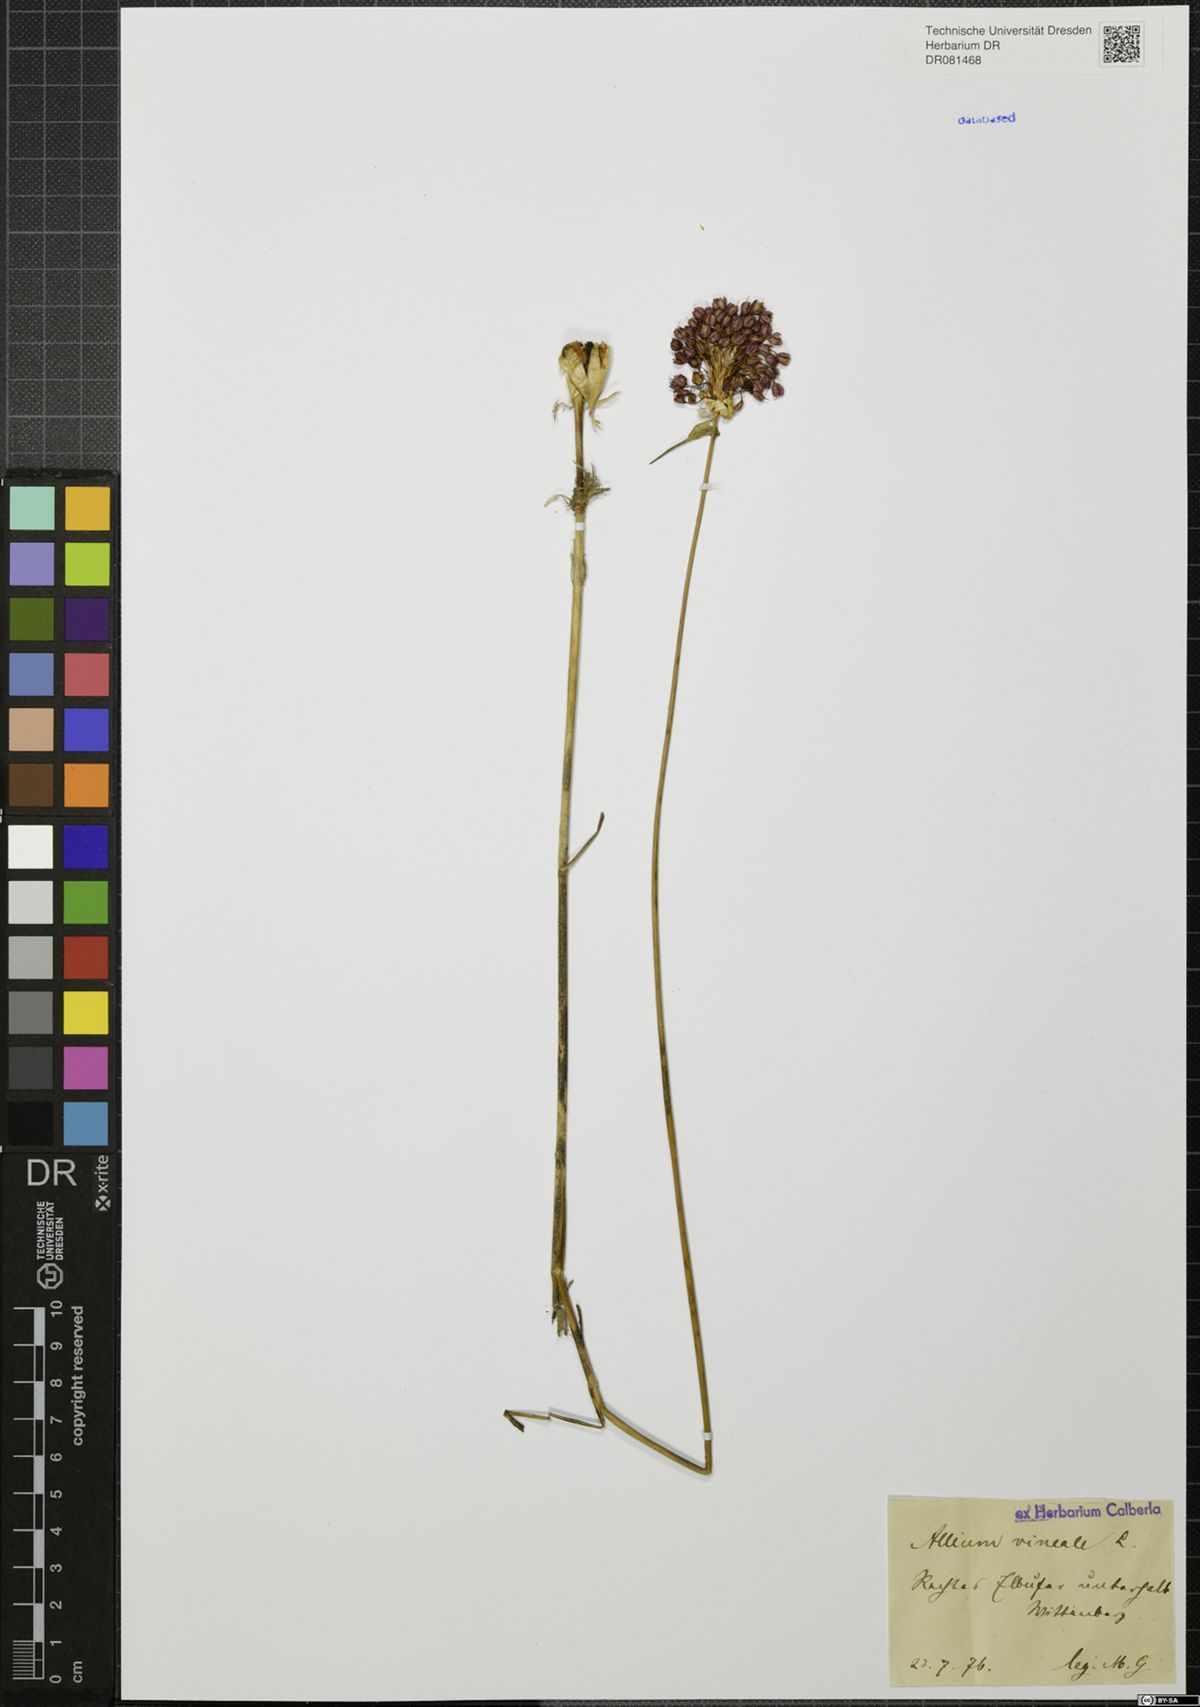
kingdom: Plantae
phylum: Tracheophyta
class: Liliopsida
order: Asparagales
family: Amaryllidaceae
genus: Allium
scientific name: Allium vineale
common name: Crow garlic
